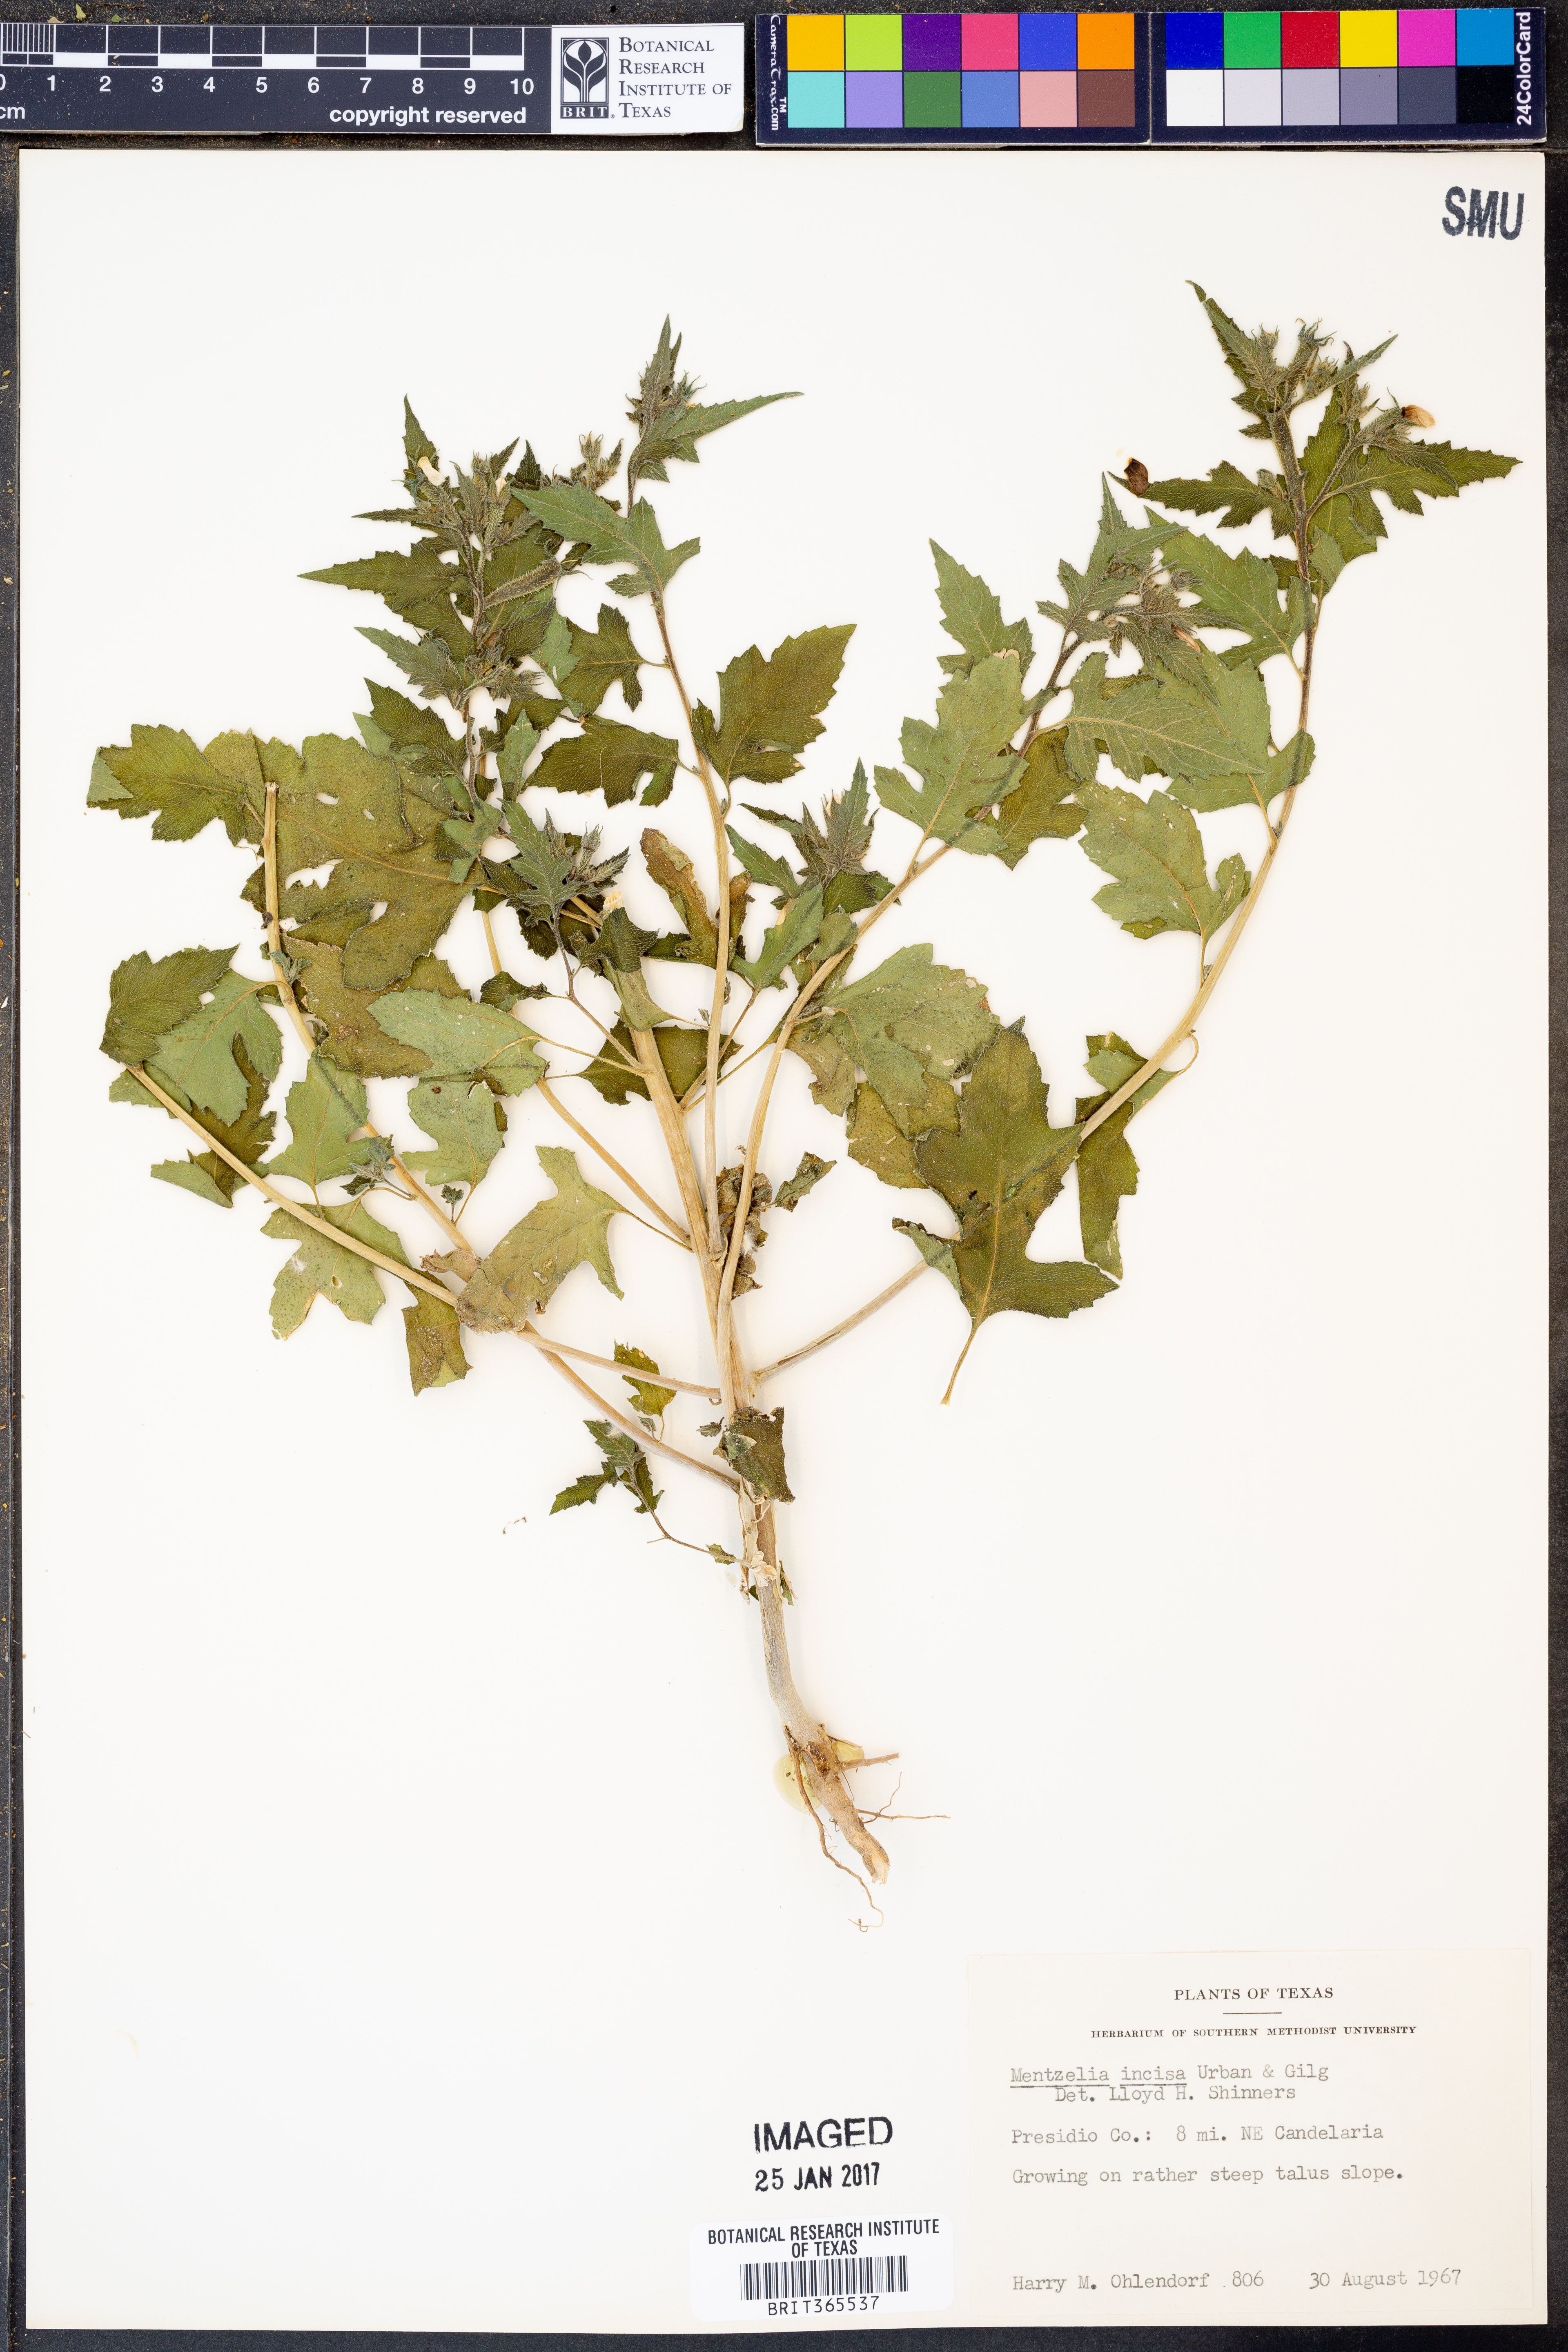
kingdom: Plantae
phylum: Tracheophyta
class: Magnoliopsida
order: Cornales
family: Loasaceae
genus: Mentzelia
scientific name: Mentzelia incisa
